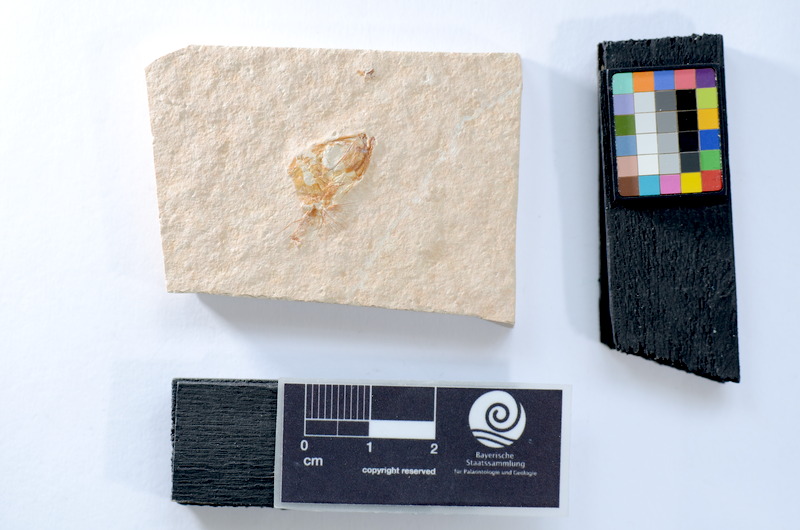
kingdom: Animalia
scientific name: Animalia
